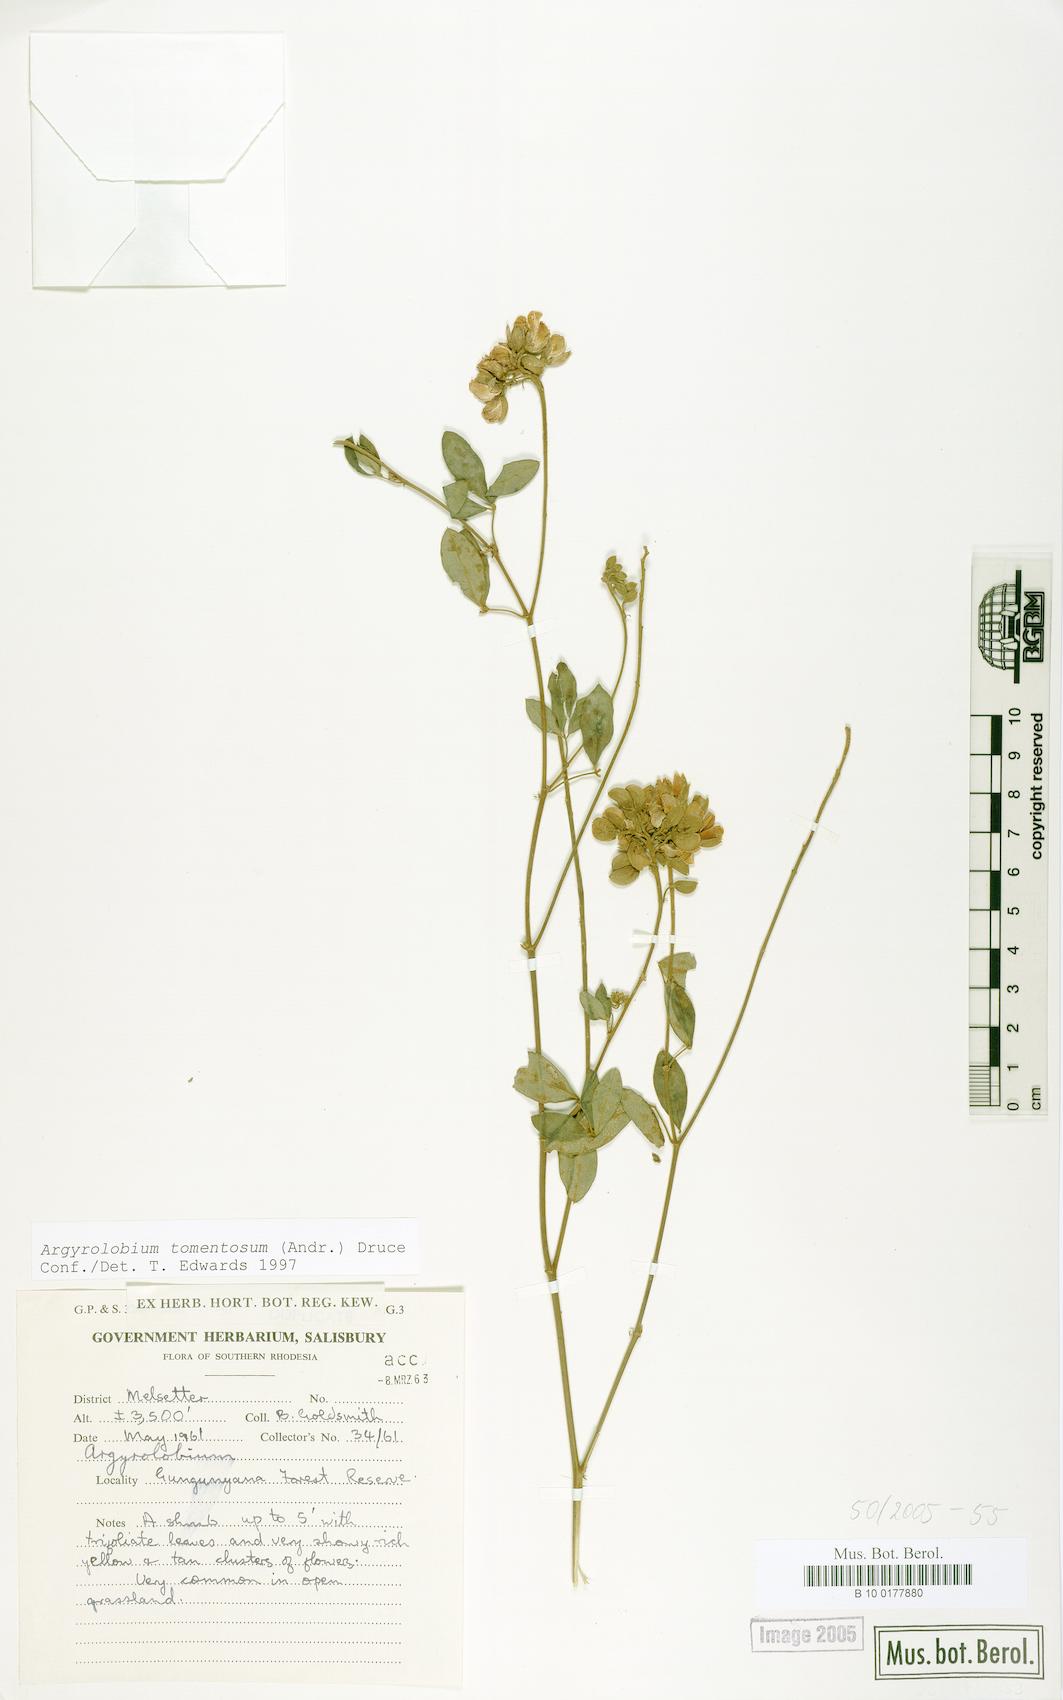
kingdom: Plantae
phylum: Tracheophyta
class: Magnoliopsida
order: Fabales
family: Fabaceae
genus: Argyrolobium
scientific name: Argyrolobium tomentosum
